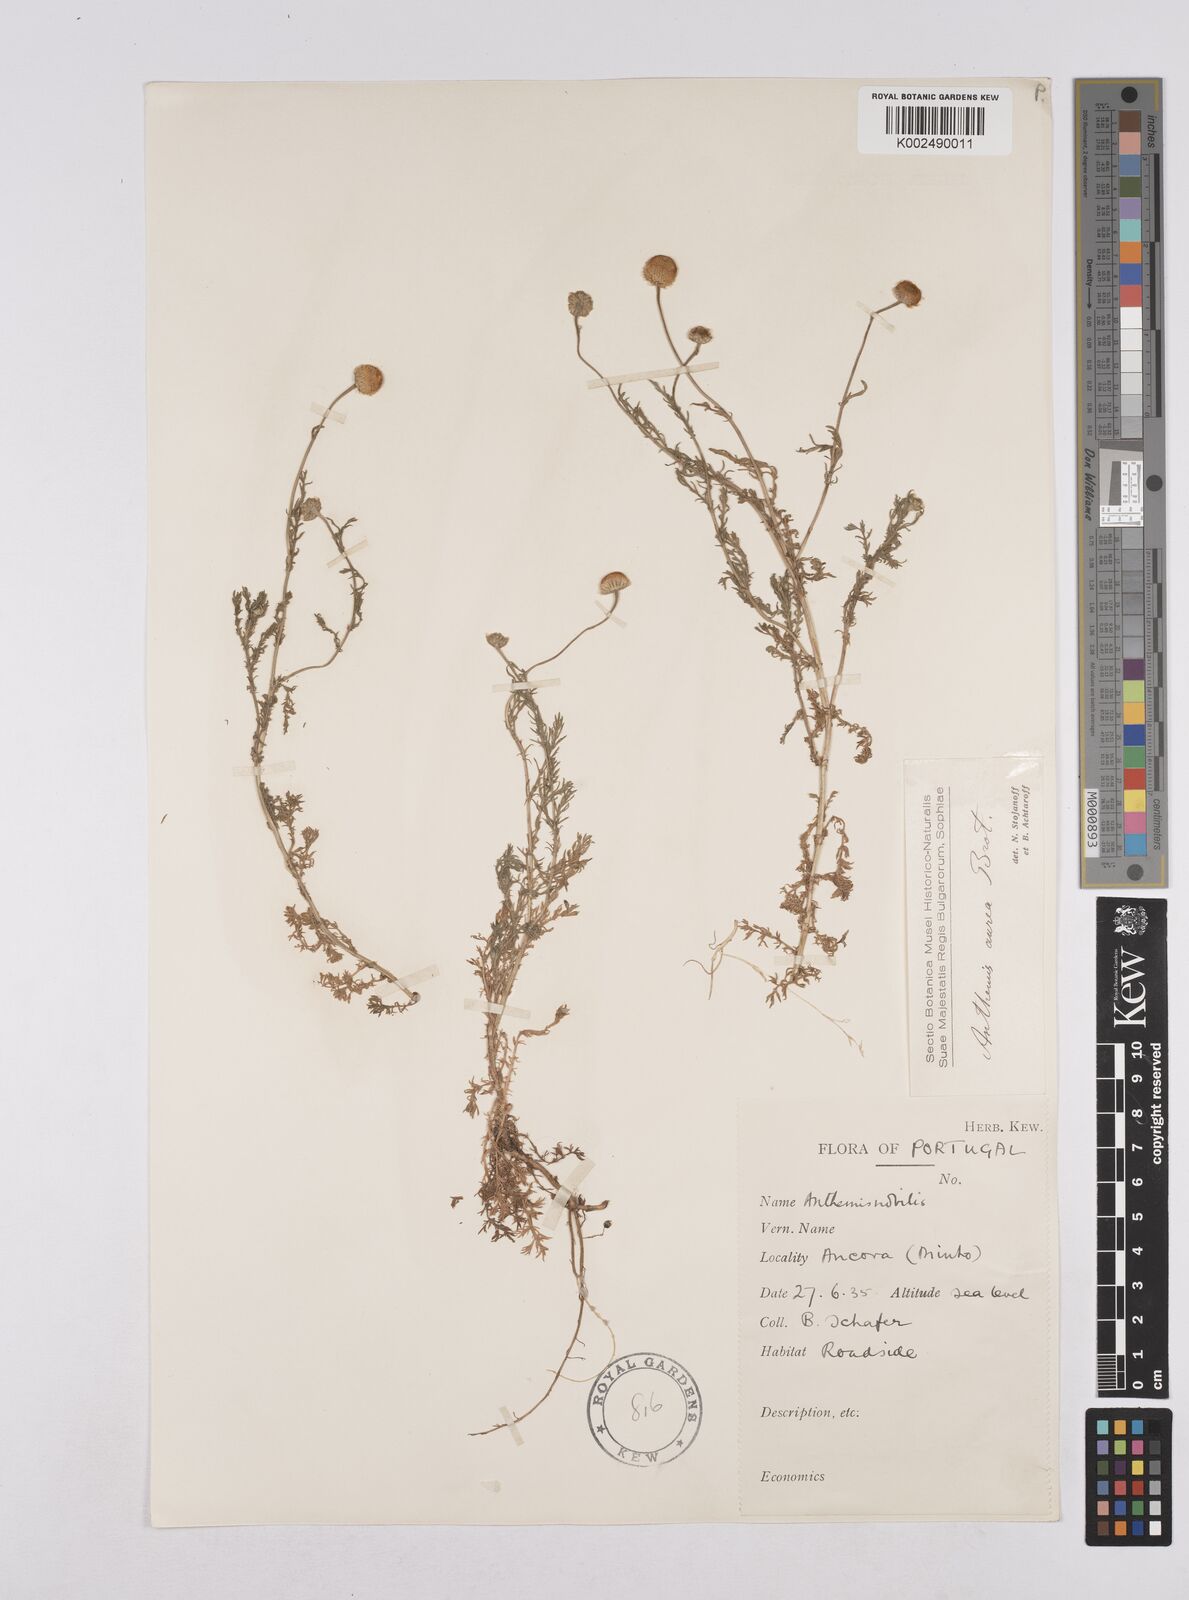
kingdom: Plantae
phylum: Tracheophyta
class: Magnoliopsida
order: Asterales
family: Asteraceae
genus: Matricaria
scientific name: Matricaria aurea
